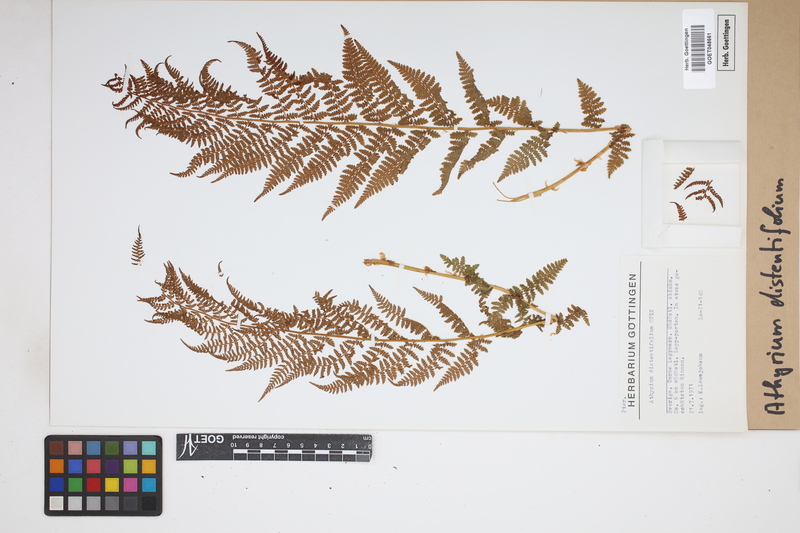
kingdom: Plantae
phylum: Tracheophyta
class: Polypodiopsida
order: Polypodiales
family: Athyriaceae
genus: Pseudathyrium
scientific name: Pseudathyrium alpestre
